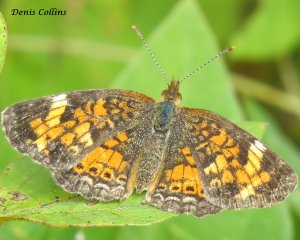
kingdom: Animalia
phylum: Arthropoda
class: Insecta
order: Lepidoptera
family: Nymphalidae
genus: Phyciodes
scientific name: Phyciodes tharos
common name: Northern Crescent
